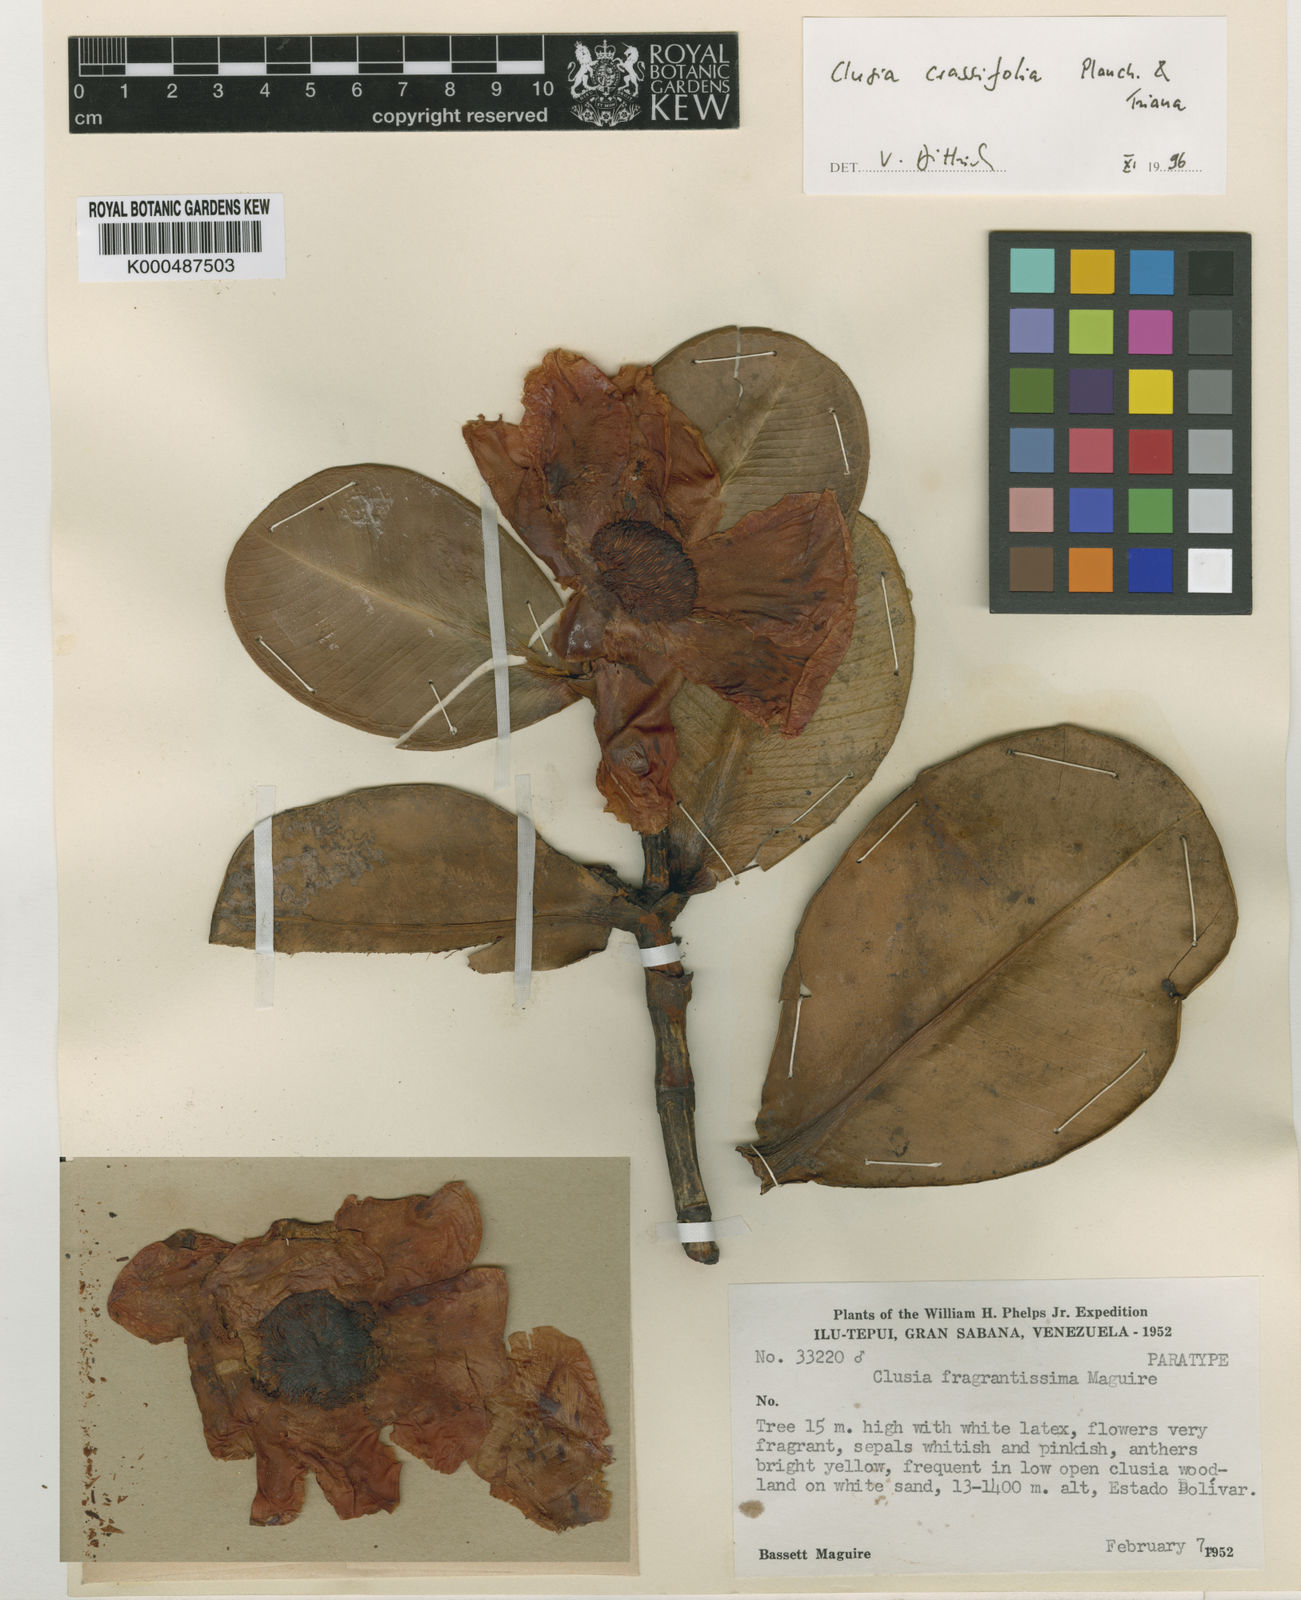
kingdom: Plantae
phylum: Tracheophyta
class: Magnoliopsida
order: Malpighiales
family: Clusiaceae
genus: Clusia
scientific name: Clusia
